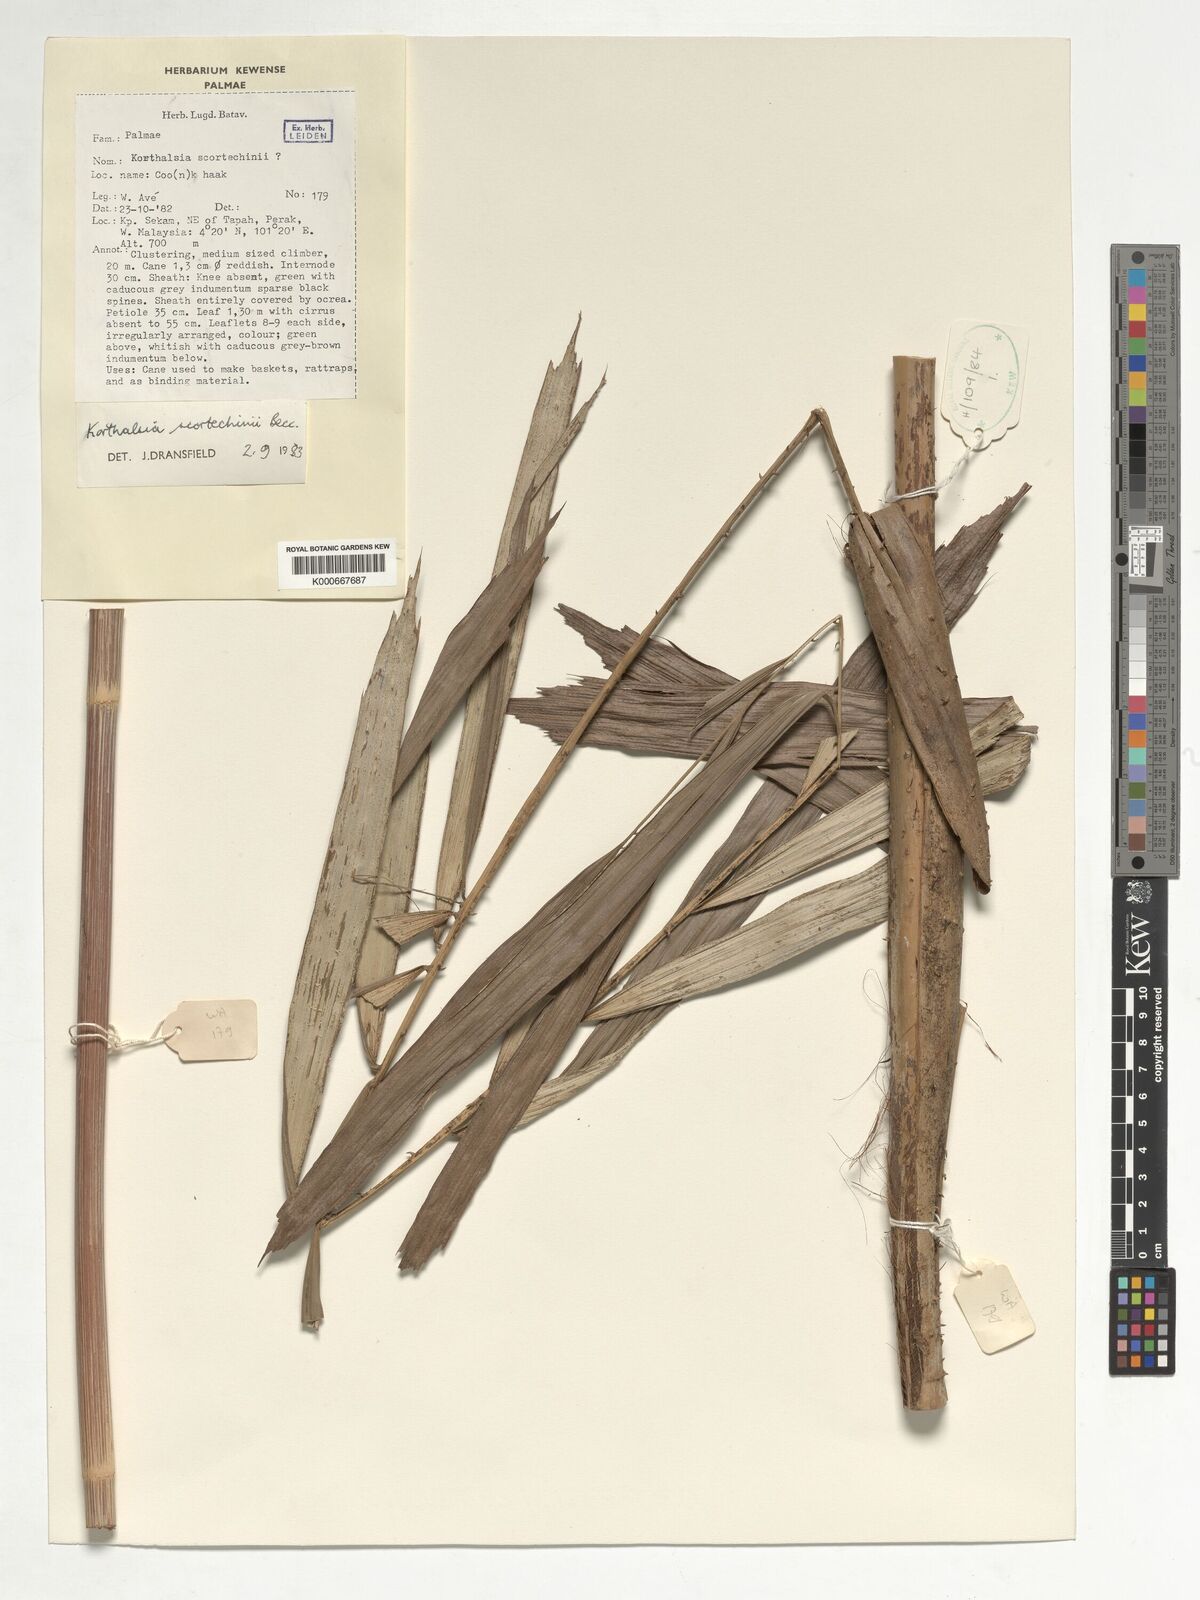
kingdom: Plantae
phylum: Tracheophyta
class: Liliopsida
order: Arecales
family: Arecaceae
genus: Korthalsia
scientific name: Korthalsia scortechinii
